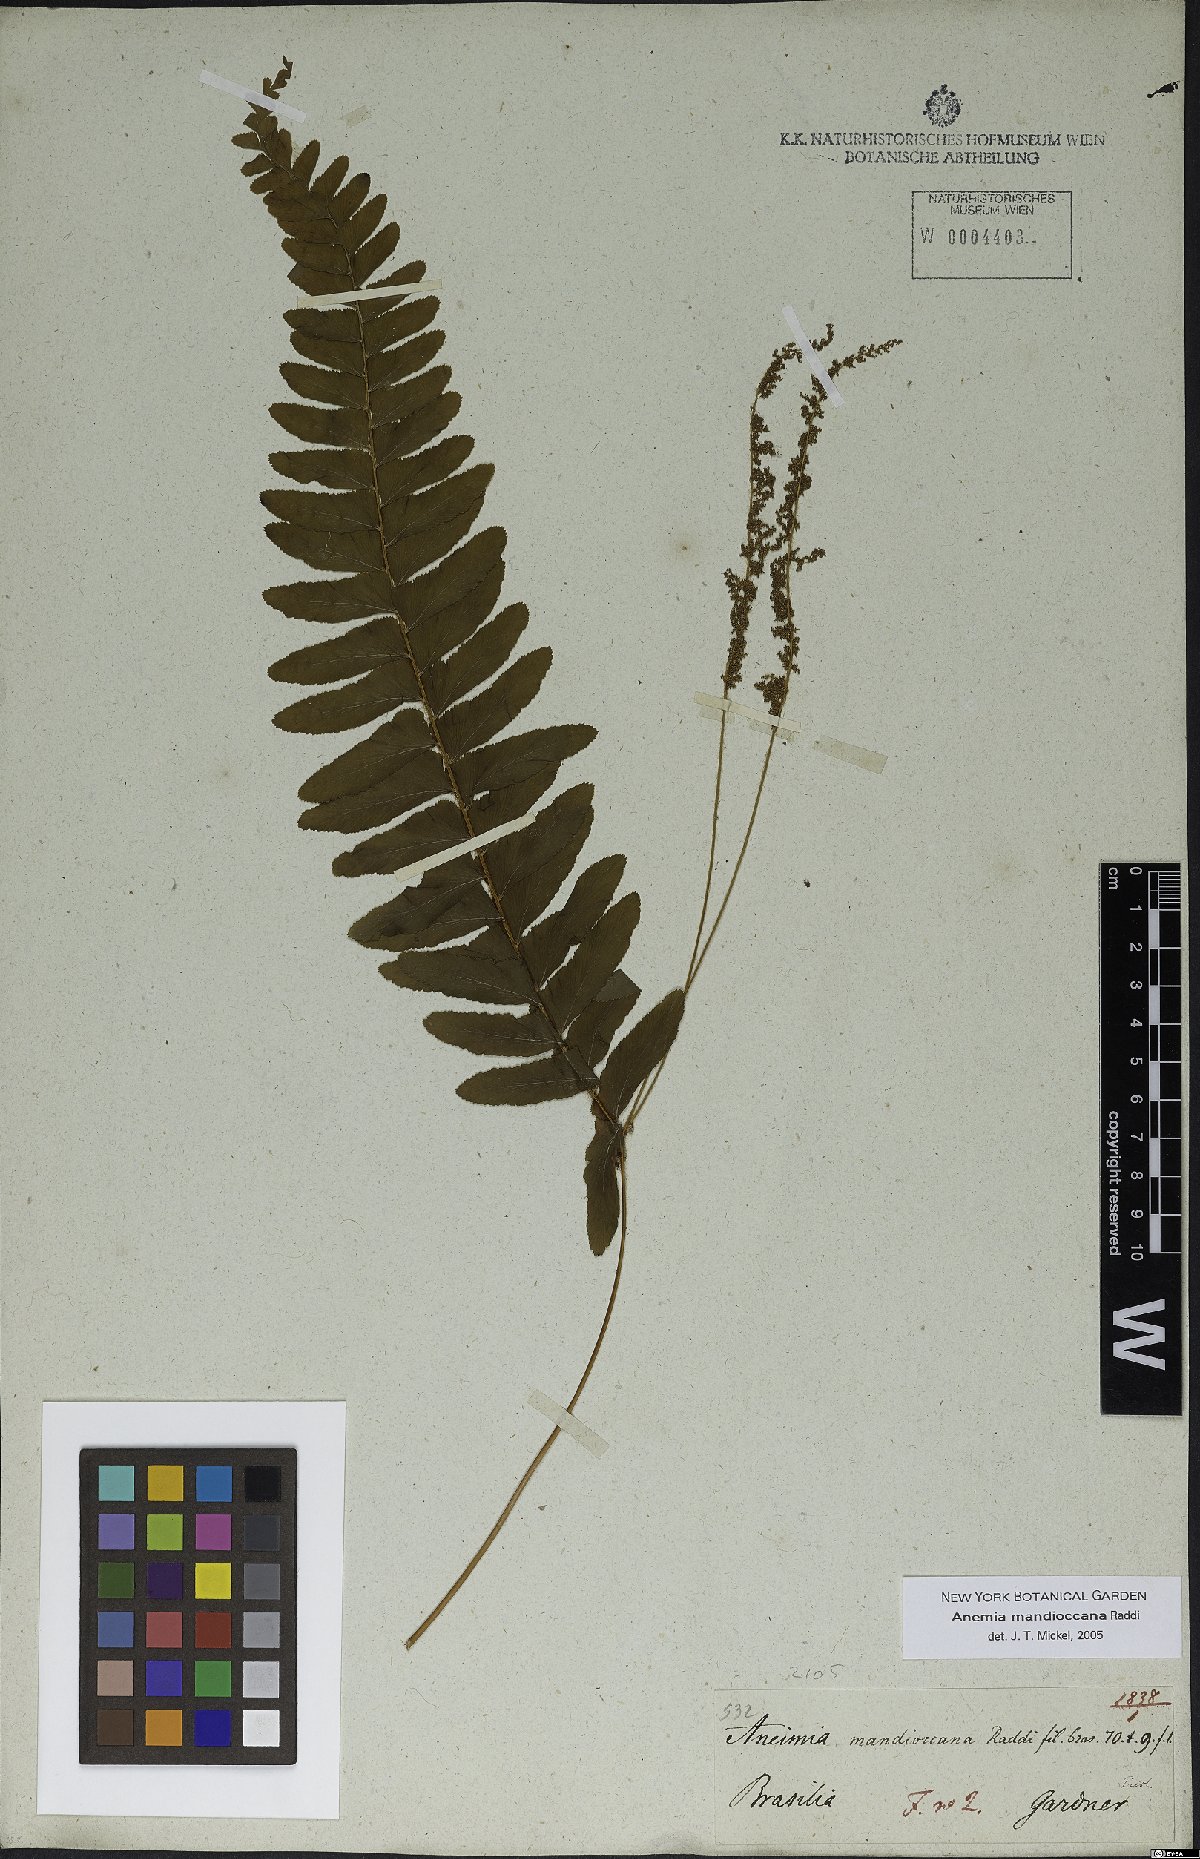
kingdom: Plantae
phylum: Tracheophyta
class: Polypodiopsida
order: Schizaeales
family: Anemiaceae
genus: Anemia
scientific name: Anemia mandiocana
